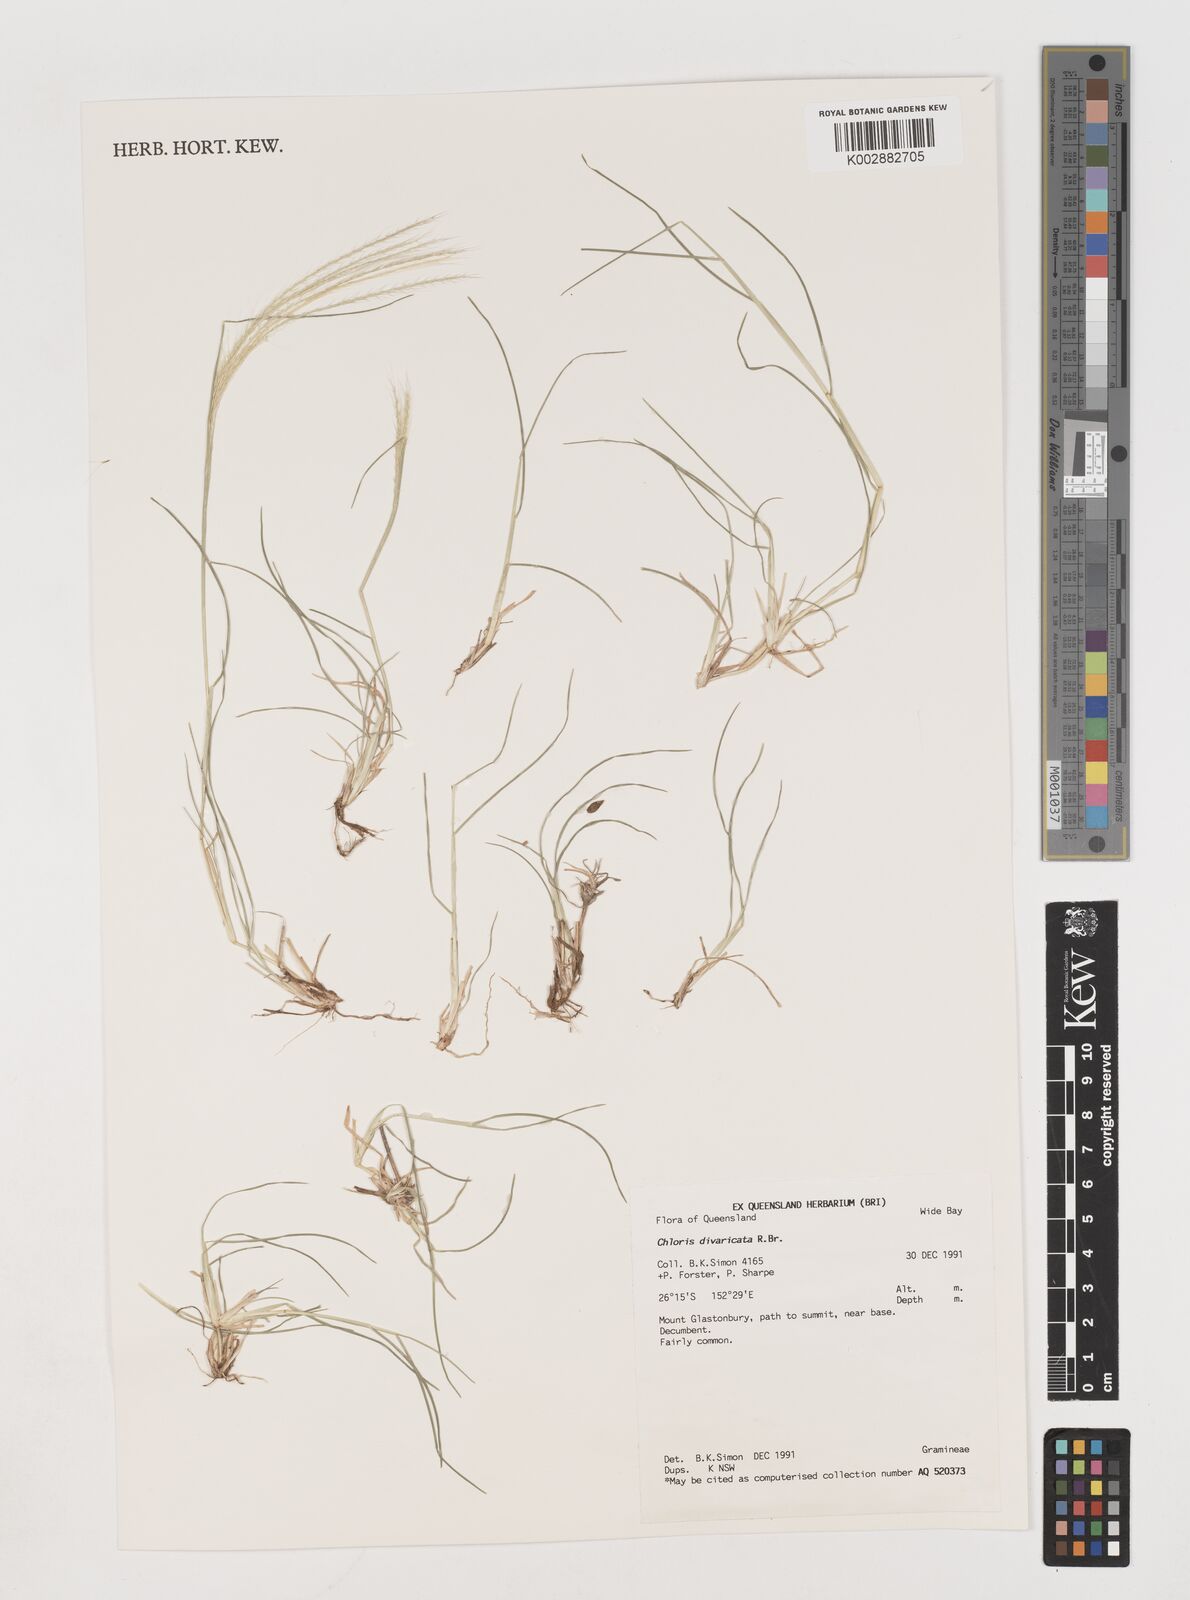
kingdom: Plantae
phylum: Tracheophyta
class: Liliopsida
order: Poales
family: Poaceae
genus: Chloris
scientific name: Chloris divaricata
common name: Spreading windmill grass
